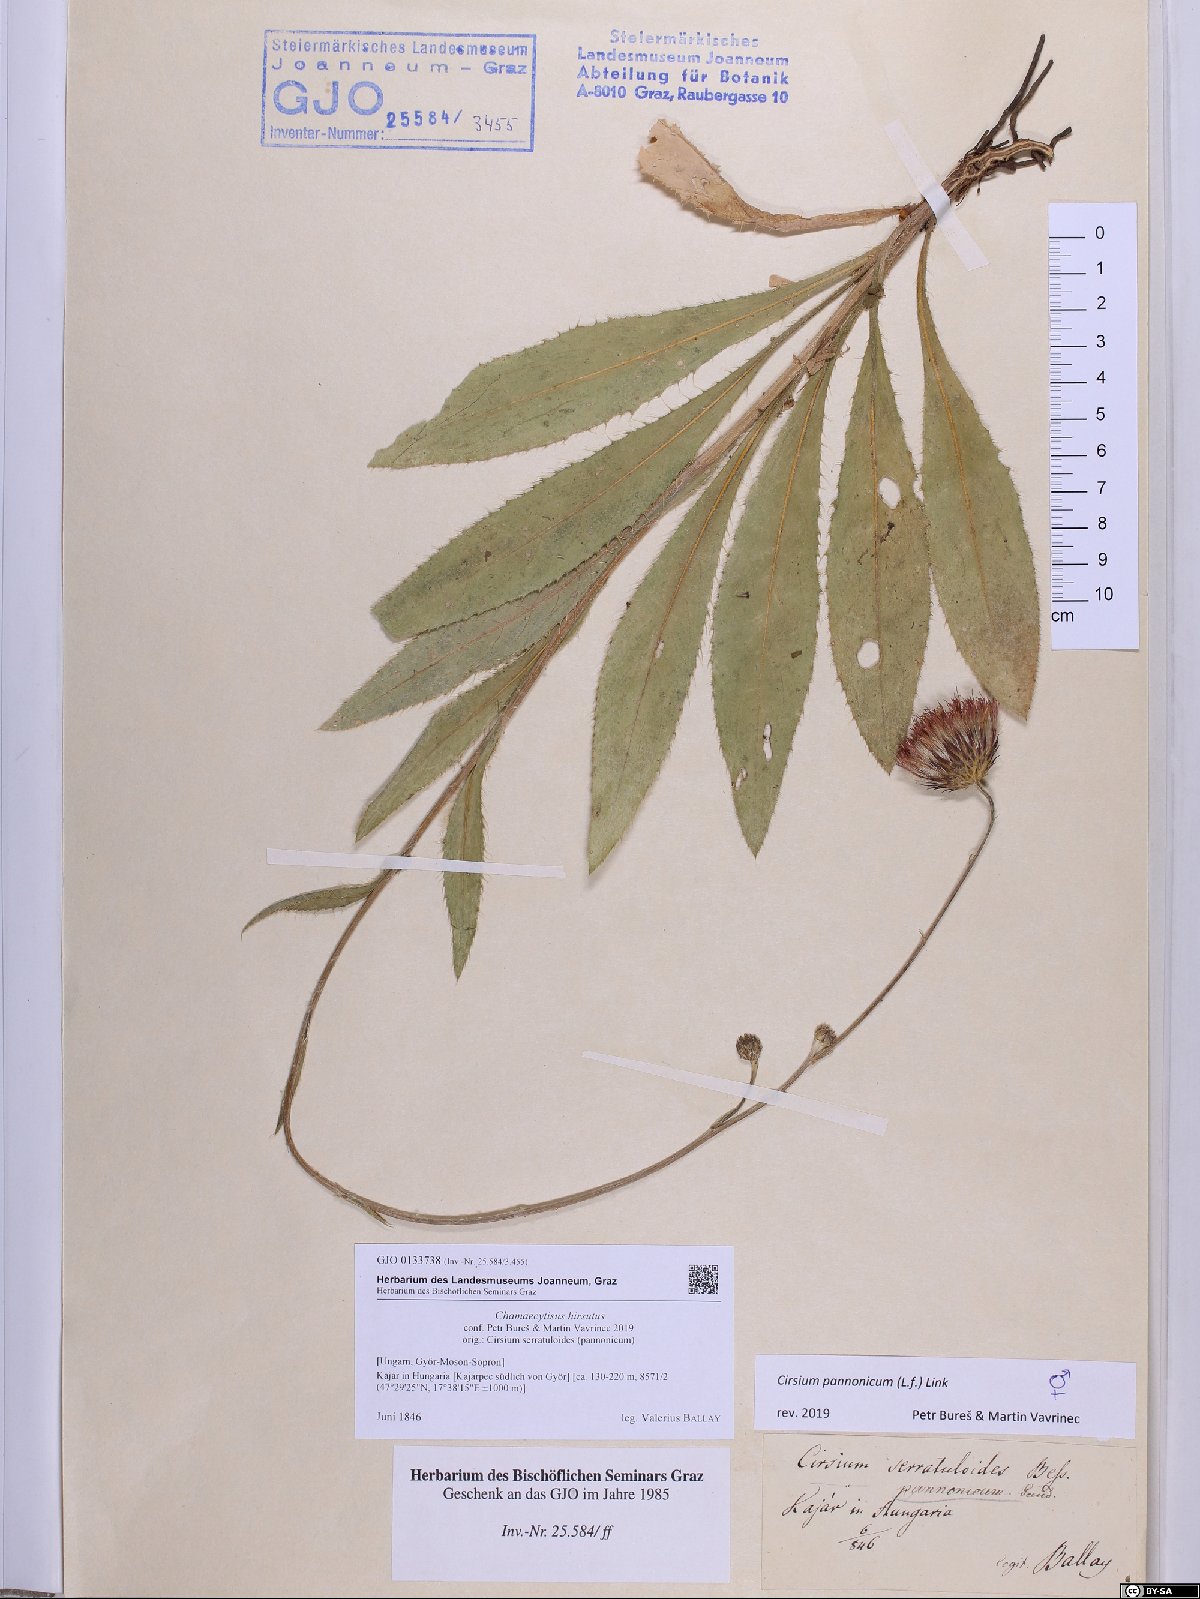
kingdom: Plantae
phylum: Tracheophyta
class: Magnoliopsida
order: Fabales
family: Fabaceae
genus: Chamaecytisus
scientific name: Chamaecytisus hirsutus
